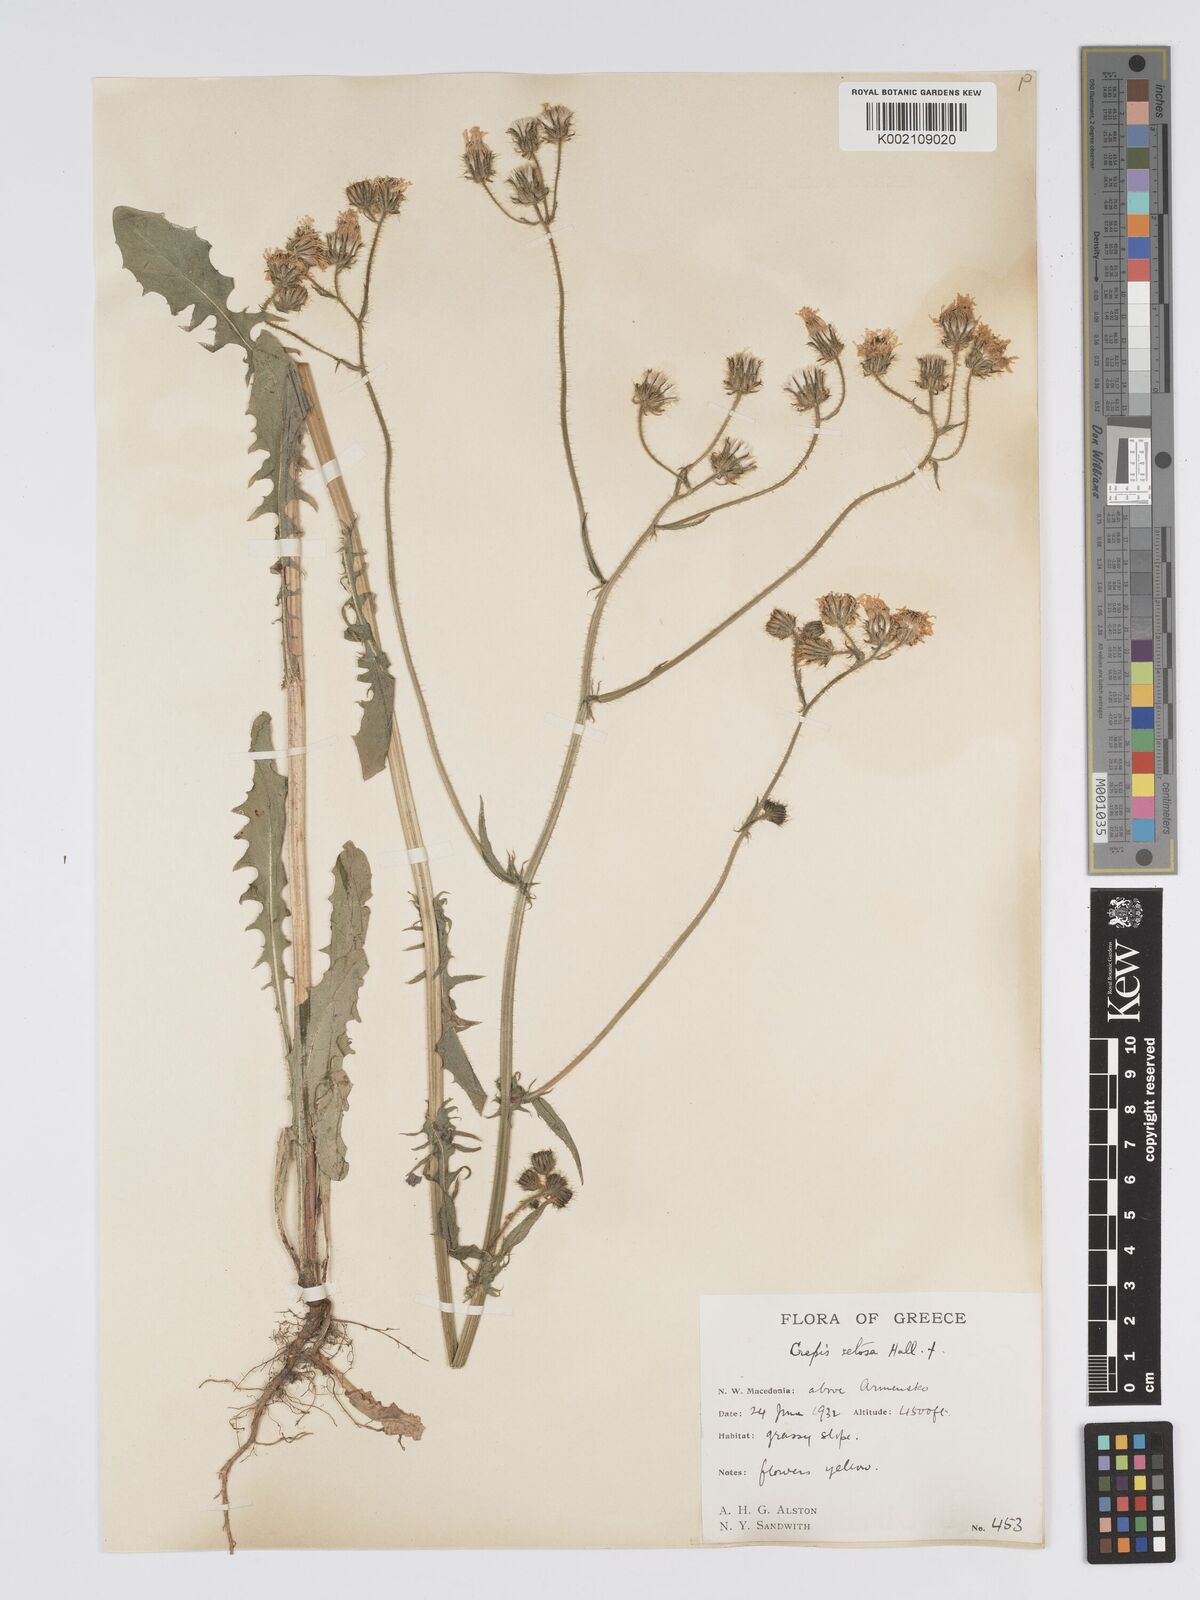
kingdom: Plantae
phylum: Tracheophyta
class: Magnoliopsida
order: Asterales
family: Asteraceae
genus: Crepis
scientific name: Crepis setosa
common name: Bristly hawk's-beard
